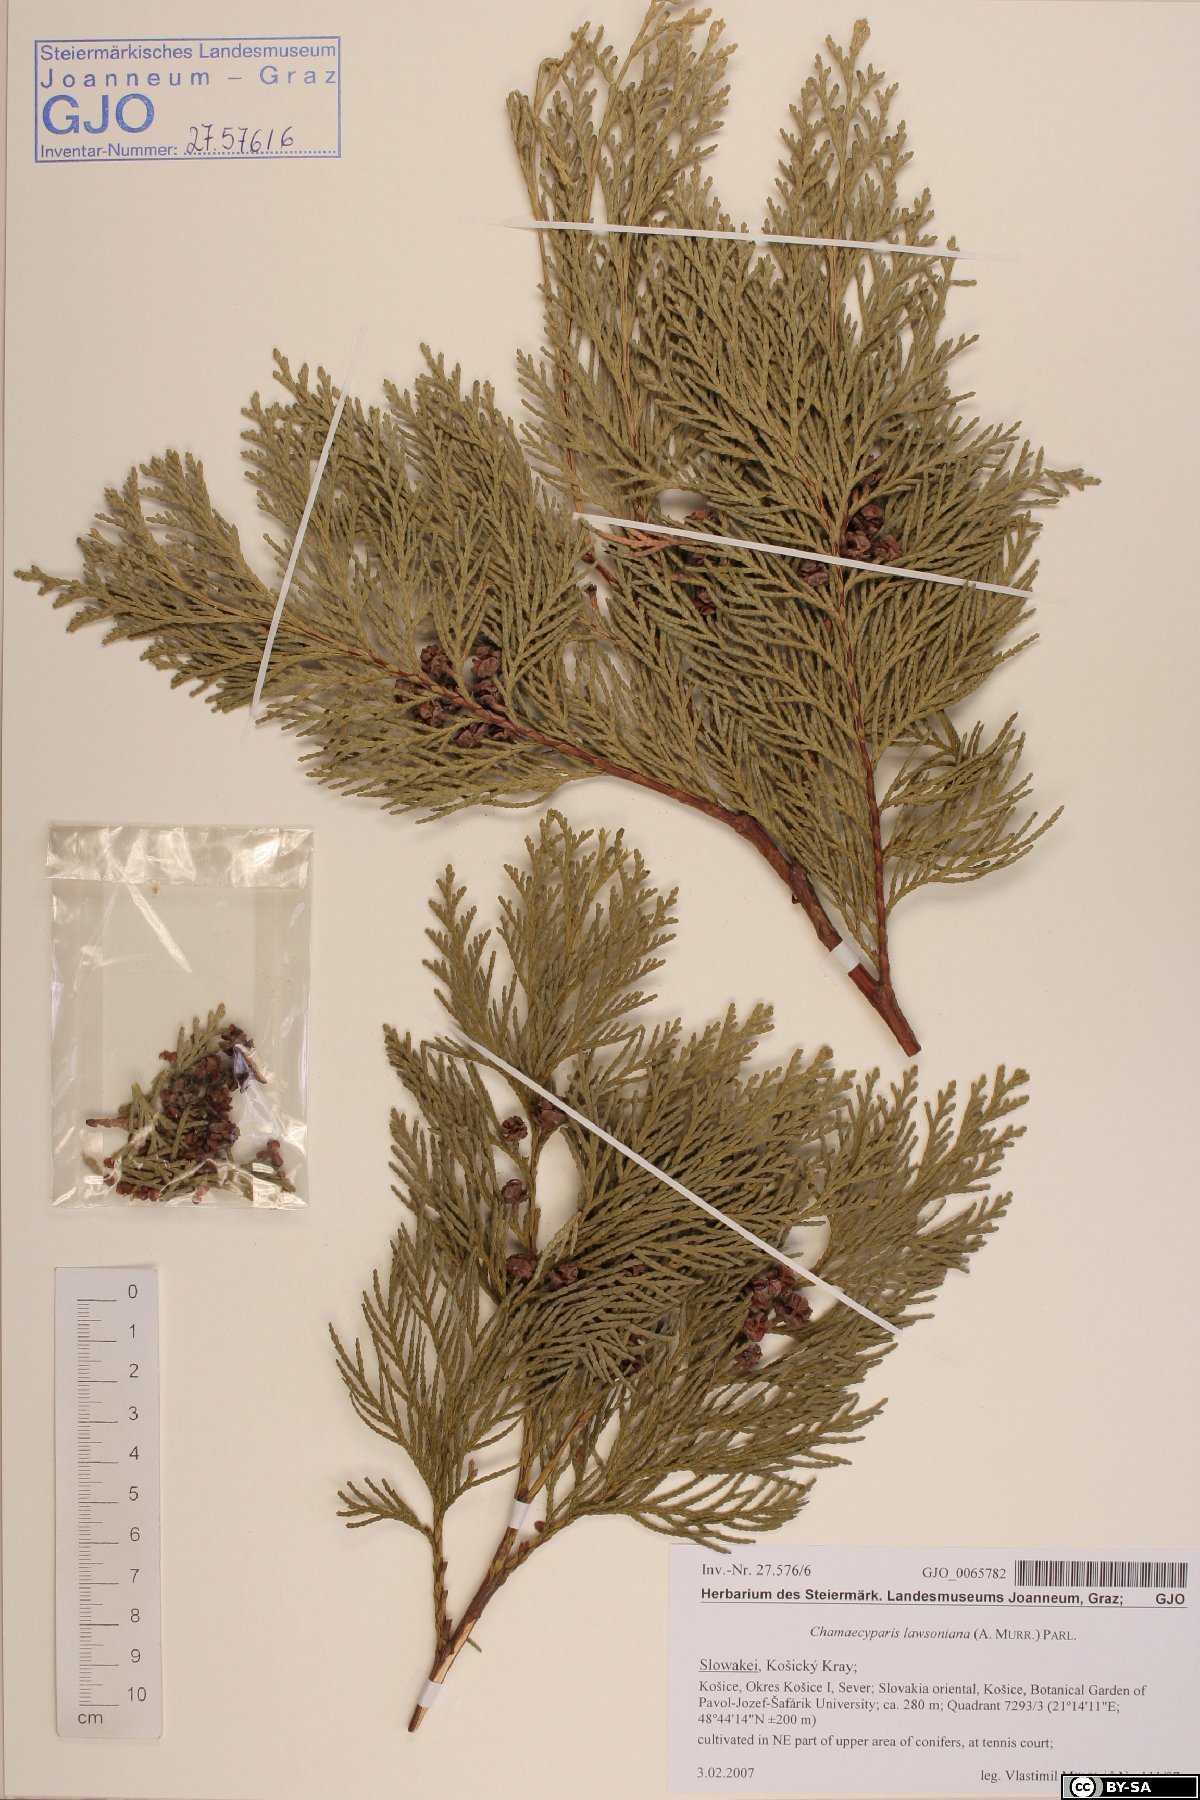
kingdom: Plantae
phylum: Tracheophyta
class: Pinopsida
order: Pinales
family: Cupressaceae
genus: Chamaecyparis
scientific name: Chamaecyparis lawsoniana
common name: Lawson's cypress
